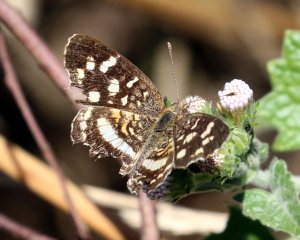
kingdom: Animalia
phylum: Arthropoda
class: Insecta
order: Lepidoptera
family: Nymphalidae
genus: Anthanassa
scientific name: Anthanassa tulcis
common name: Pale-banded Crescent
